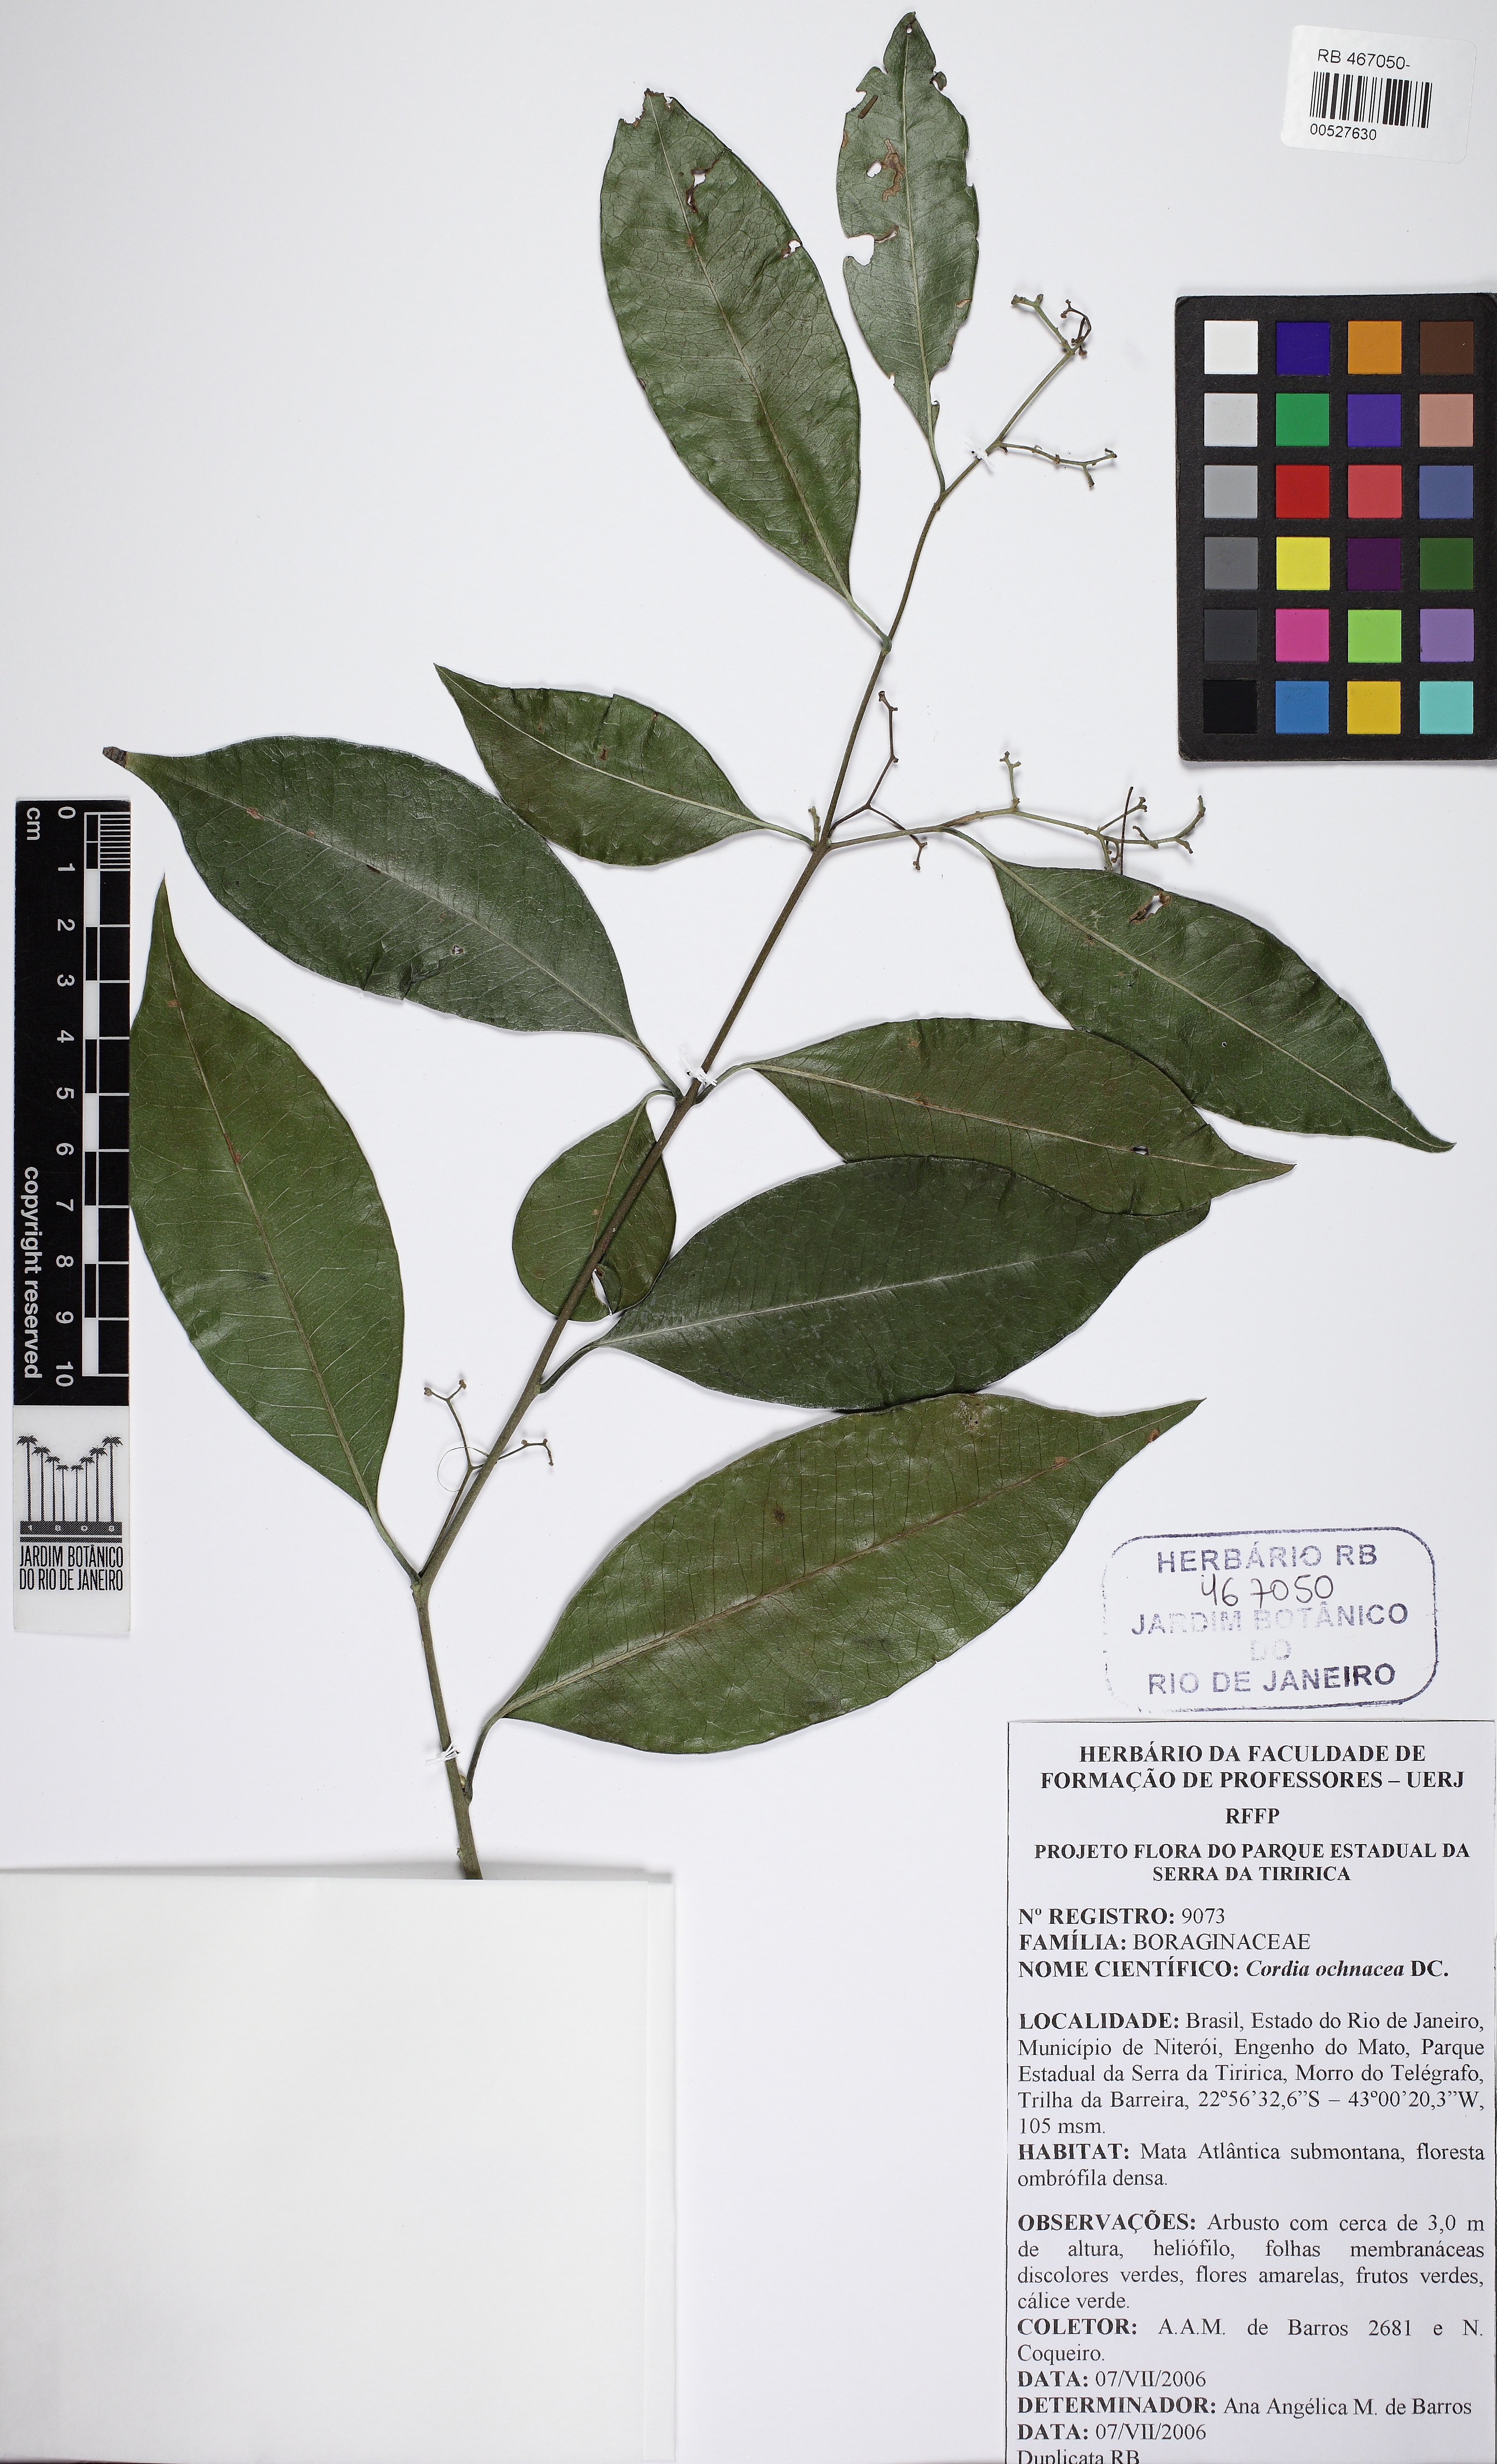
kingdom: Plantae
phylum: Tracheophyta
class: Magnoliopsida
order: Boraginales
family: Cordiaceae
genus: Cordia
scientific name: Cordia ochnacea
